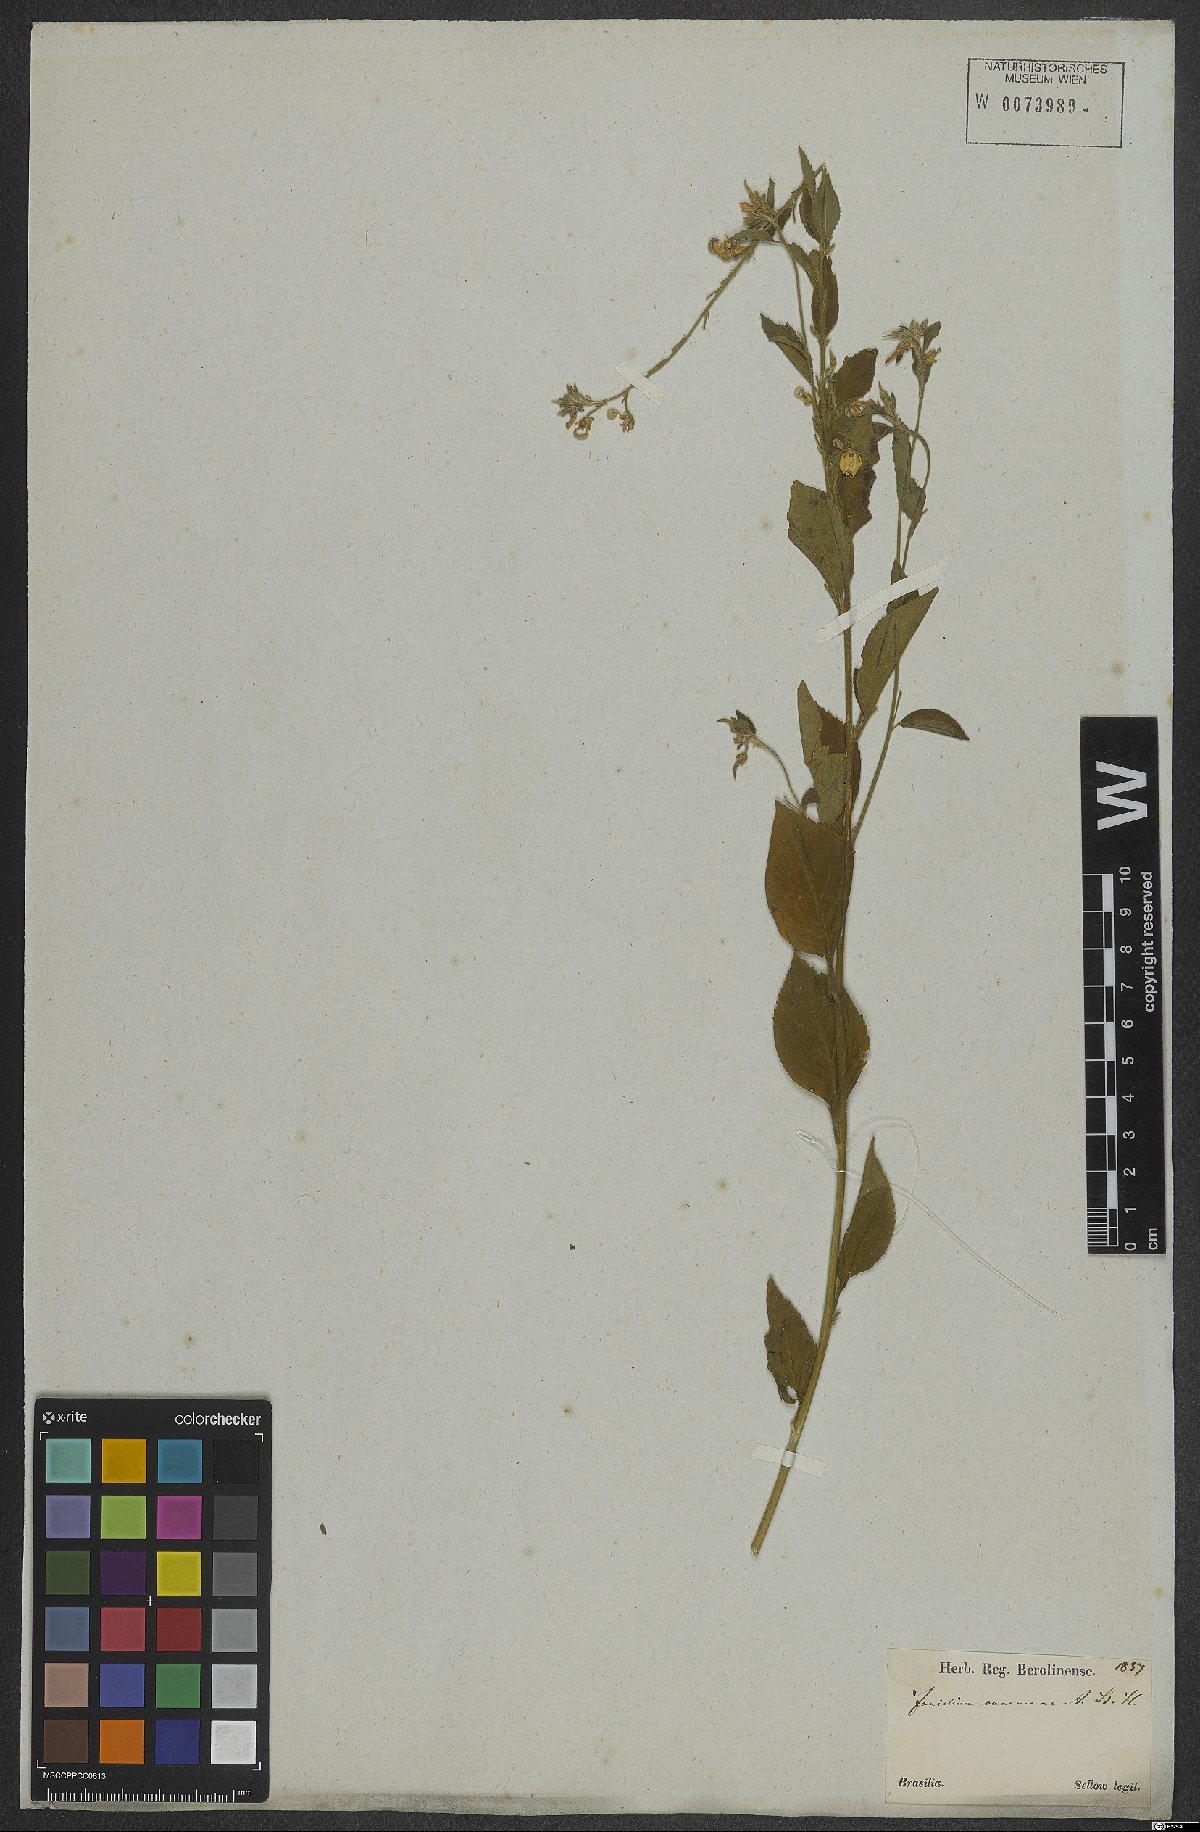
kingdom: Plantae
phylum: Tracheophyta
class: Magnoliopsida
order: Malpighiales
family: Violaceae
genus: Pombalia
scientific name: Pombalia communis
